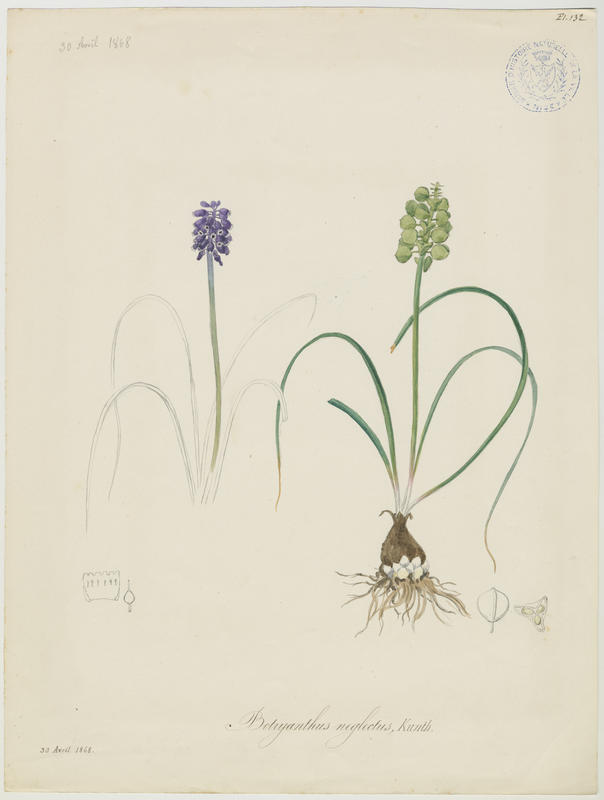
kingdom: Plantae
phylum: Tracheophyta
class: Liliopsida
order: Asparagales
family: Asparagaceae
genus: Muscari
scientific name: Muscari neglectum
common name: Grape-hyacinth
